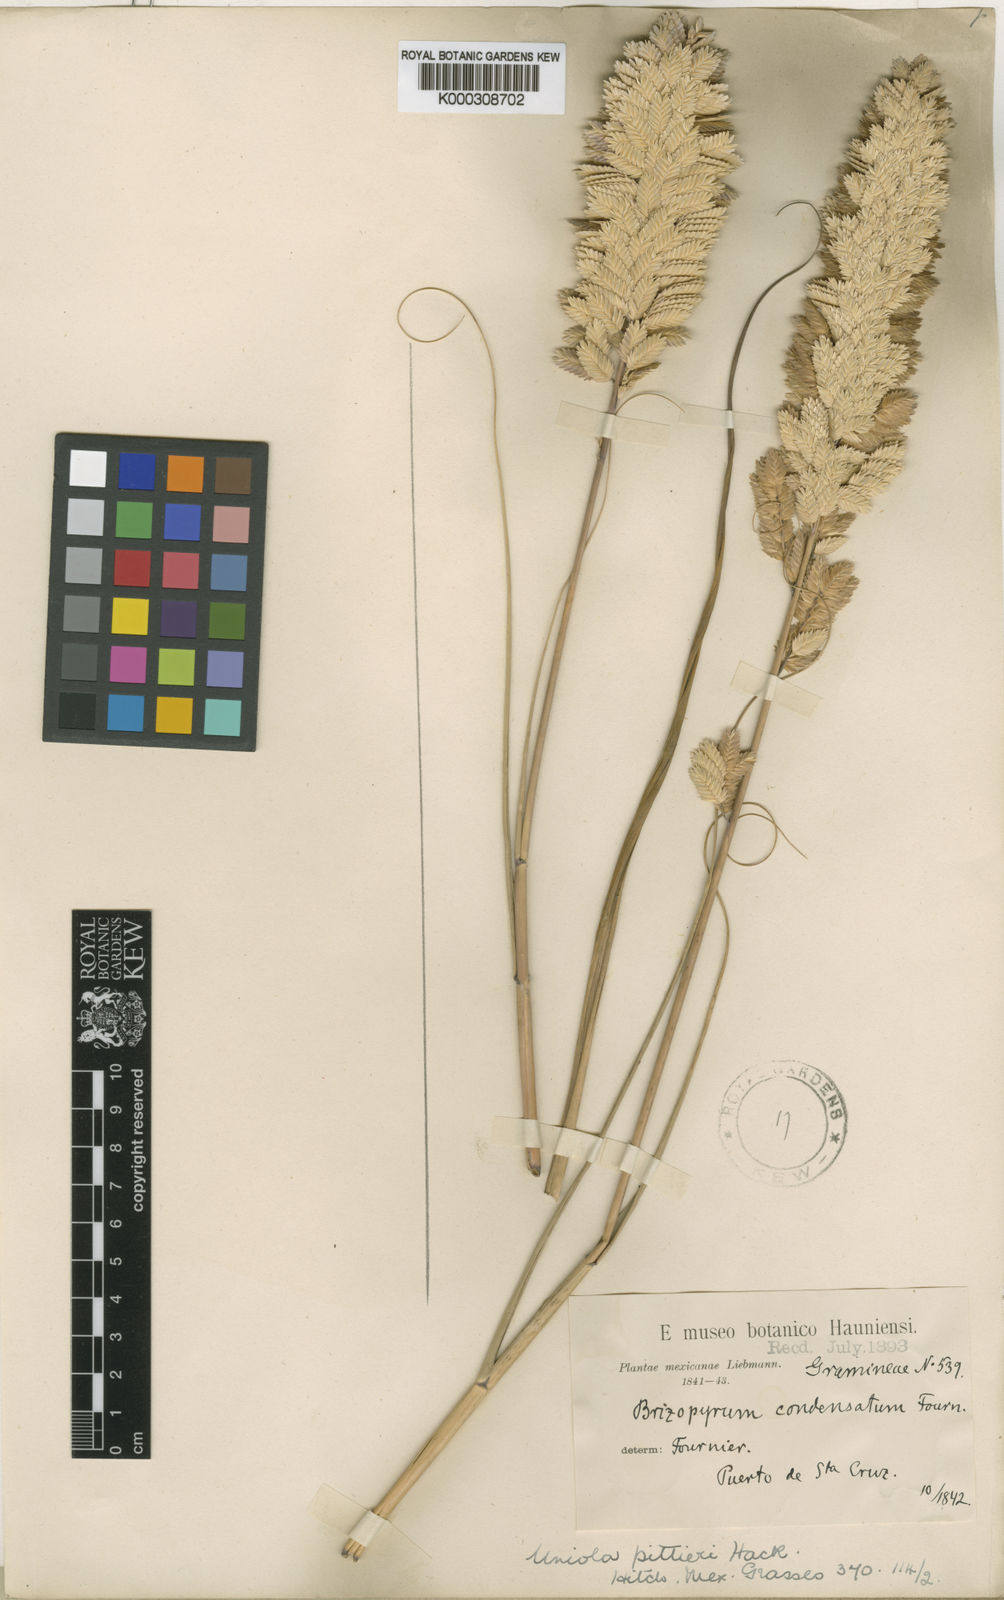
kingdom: Plantae
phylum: Tracheophyta
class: Liliopsida
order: Poales
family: Poaceae
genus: Uniola
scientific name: Uniola pittieri
